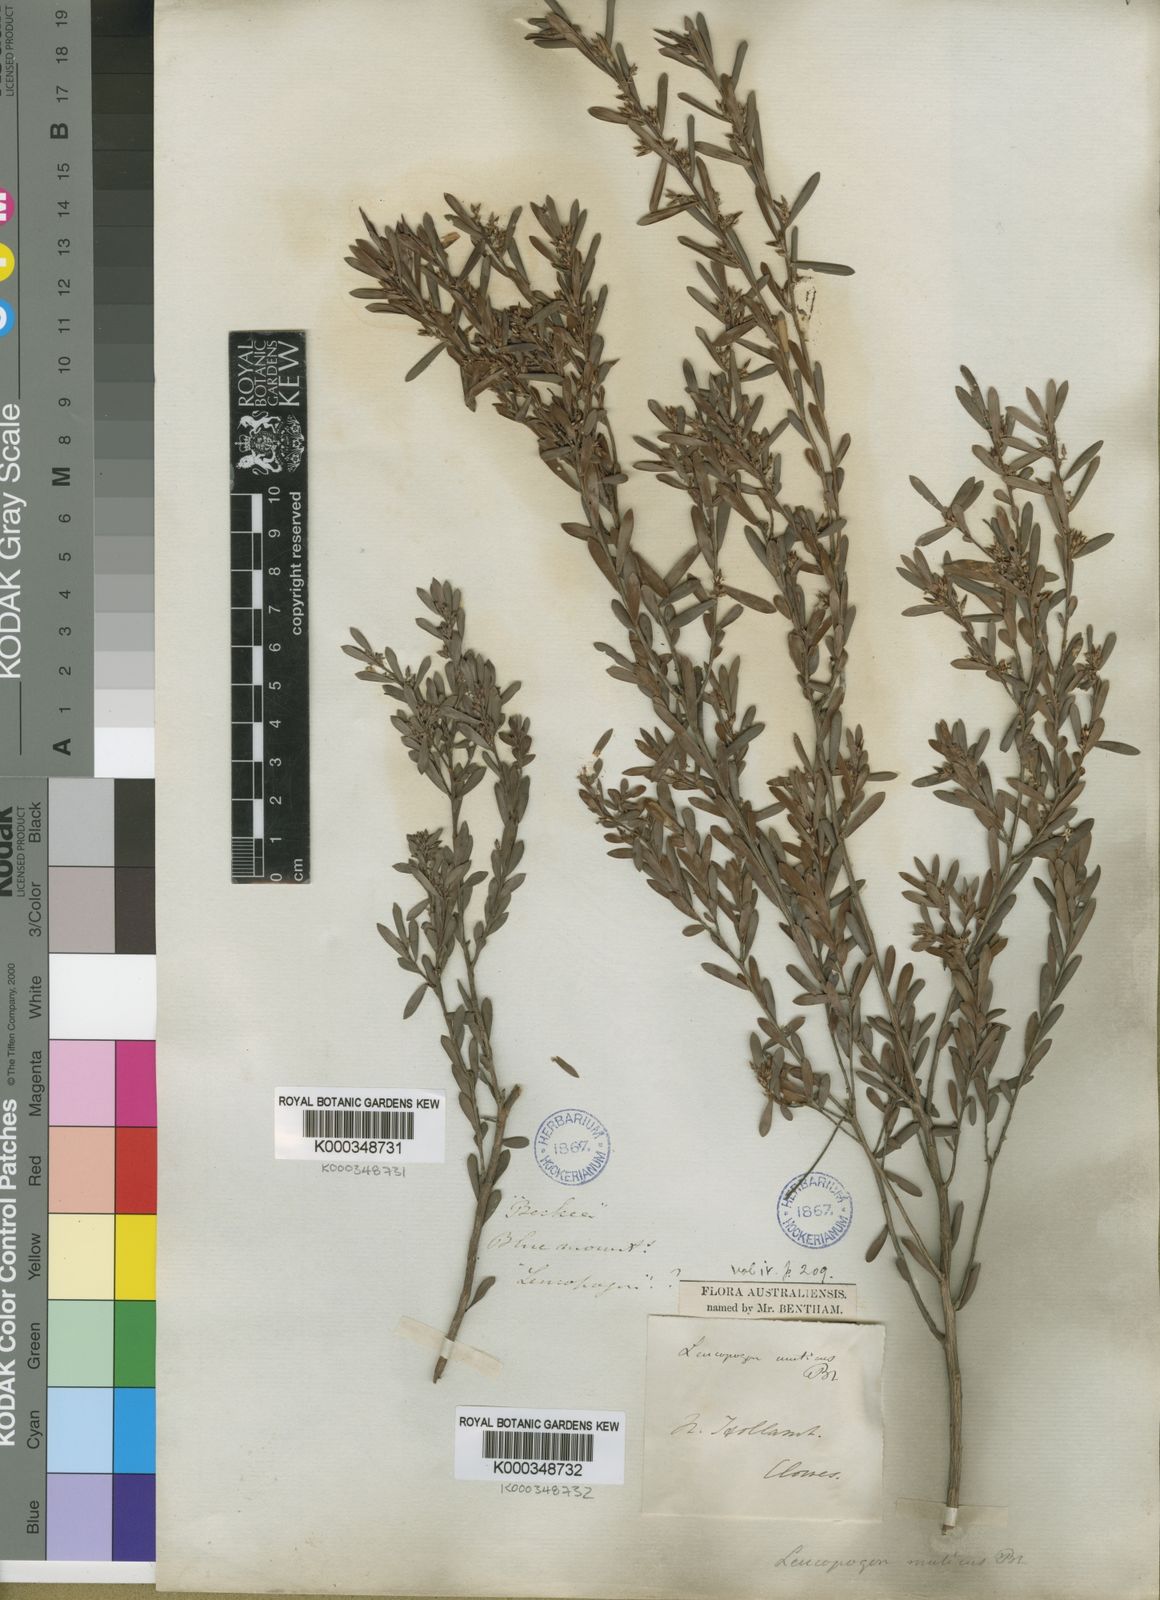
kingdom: Plantae
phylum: Tracheophyta
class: Magnoliopsida
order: Ericales
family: Ericaceae
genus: Styphelia
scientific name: Styphelia mutica
